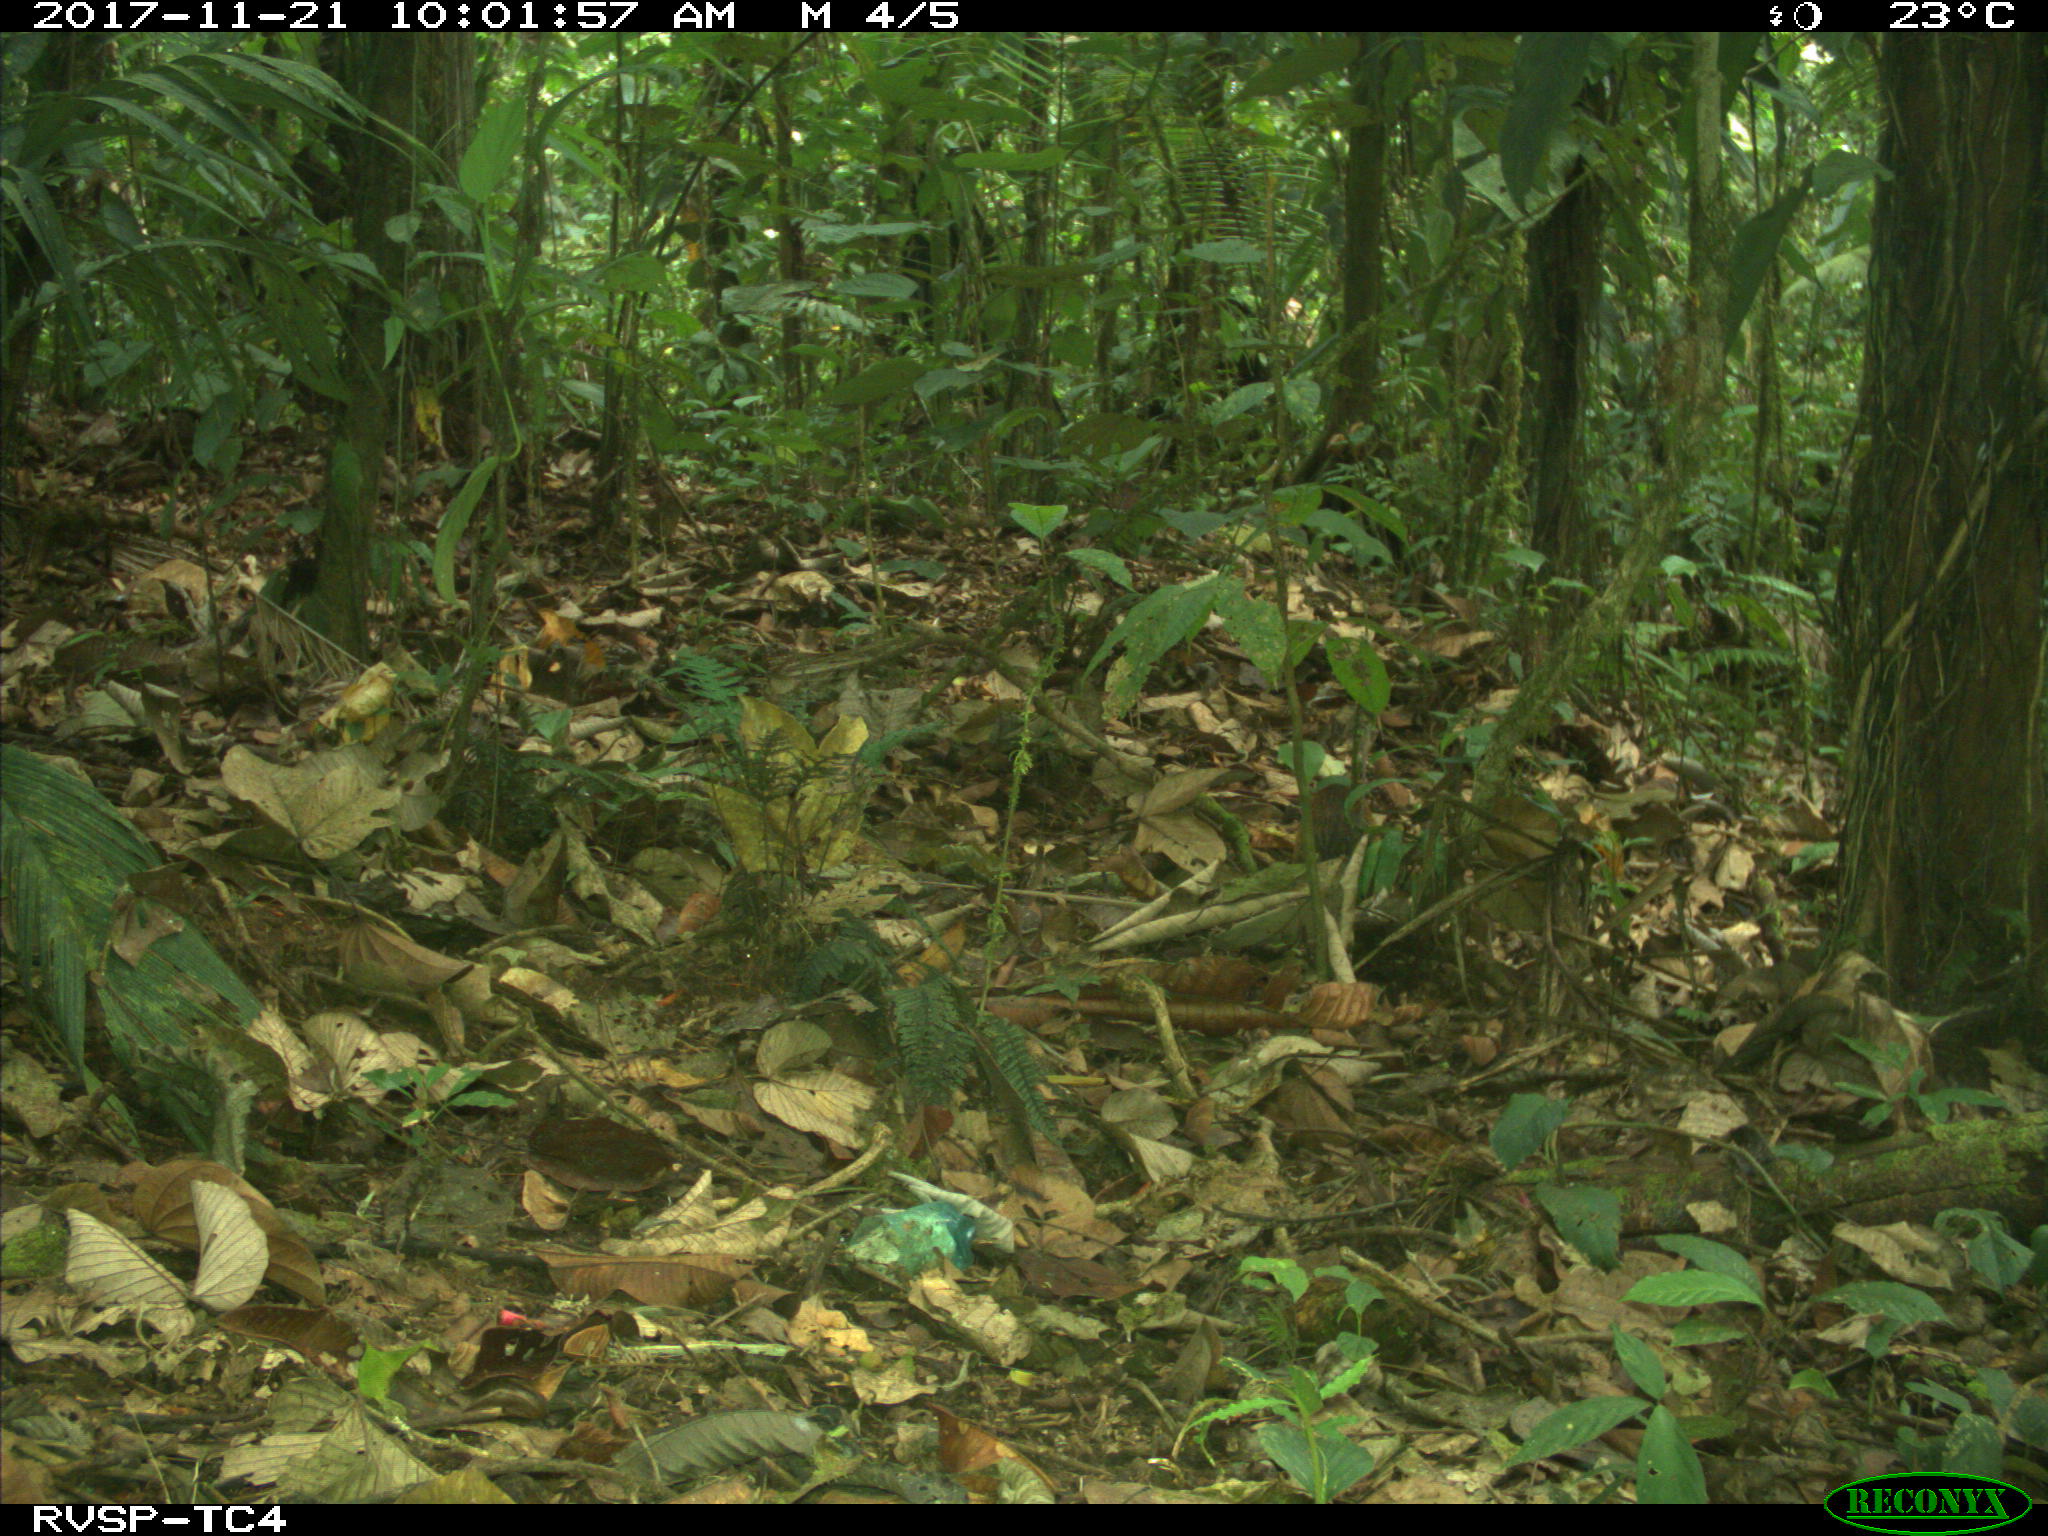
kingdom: Animalia
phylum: Chordata
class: Mammalia
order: Rodentia
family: Dasyproctidae
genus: Dasyprocta
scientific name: Dasyprocta punctata
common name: Central american agouti
